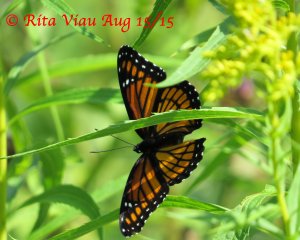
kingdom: Animalia
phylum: Arthropoda
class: Insecta
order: Lepidoptera
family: Nymphalidae
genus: Limenitis
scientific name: Limenitis archippus
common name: Viceroy
